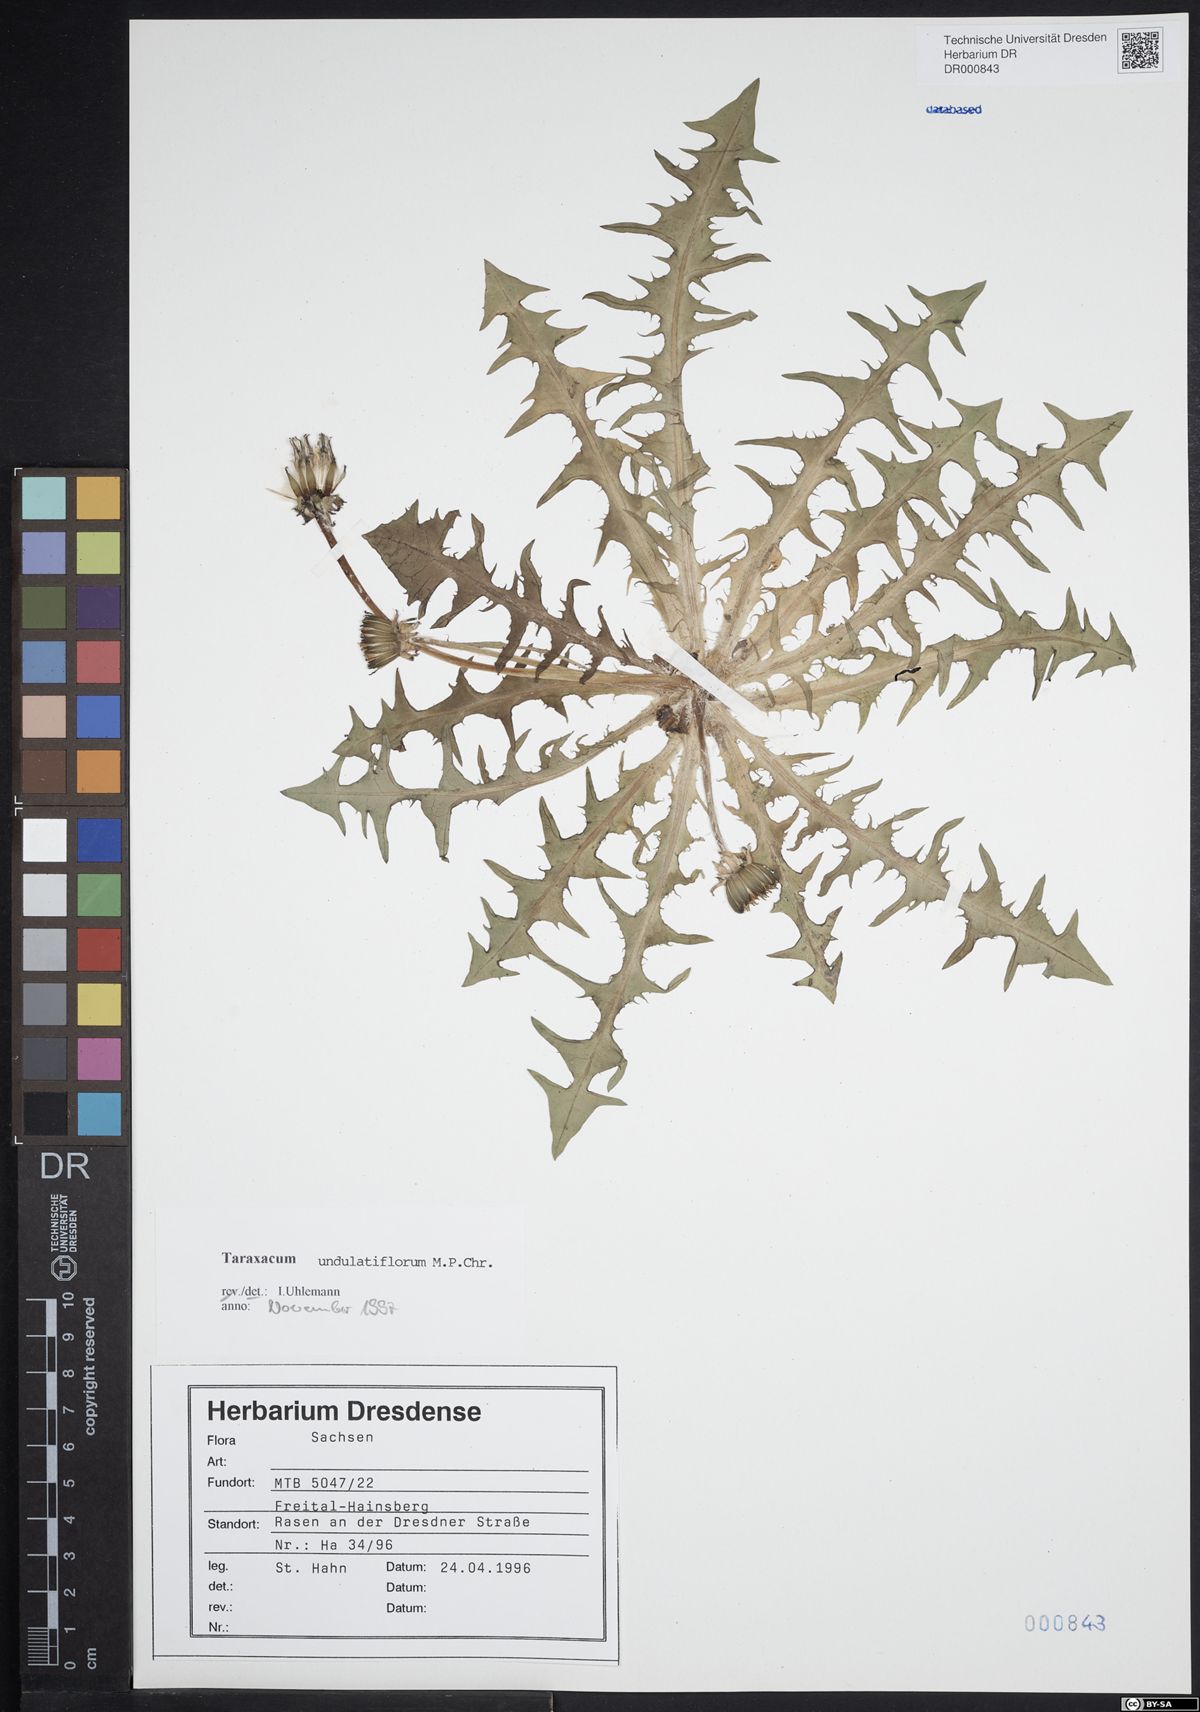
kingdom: Plantae
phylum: Tracheophyta
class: Magnoliopsida
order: Asterales
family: Asteraceae
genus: Taraxacum
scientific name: Taraxacum undulatiflorum
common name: Dull-leaved dandelion
